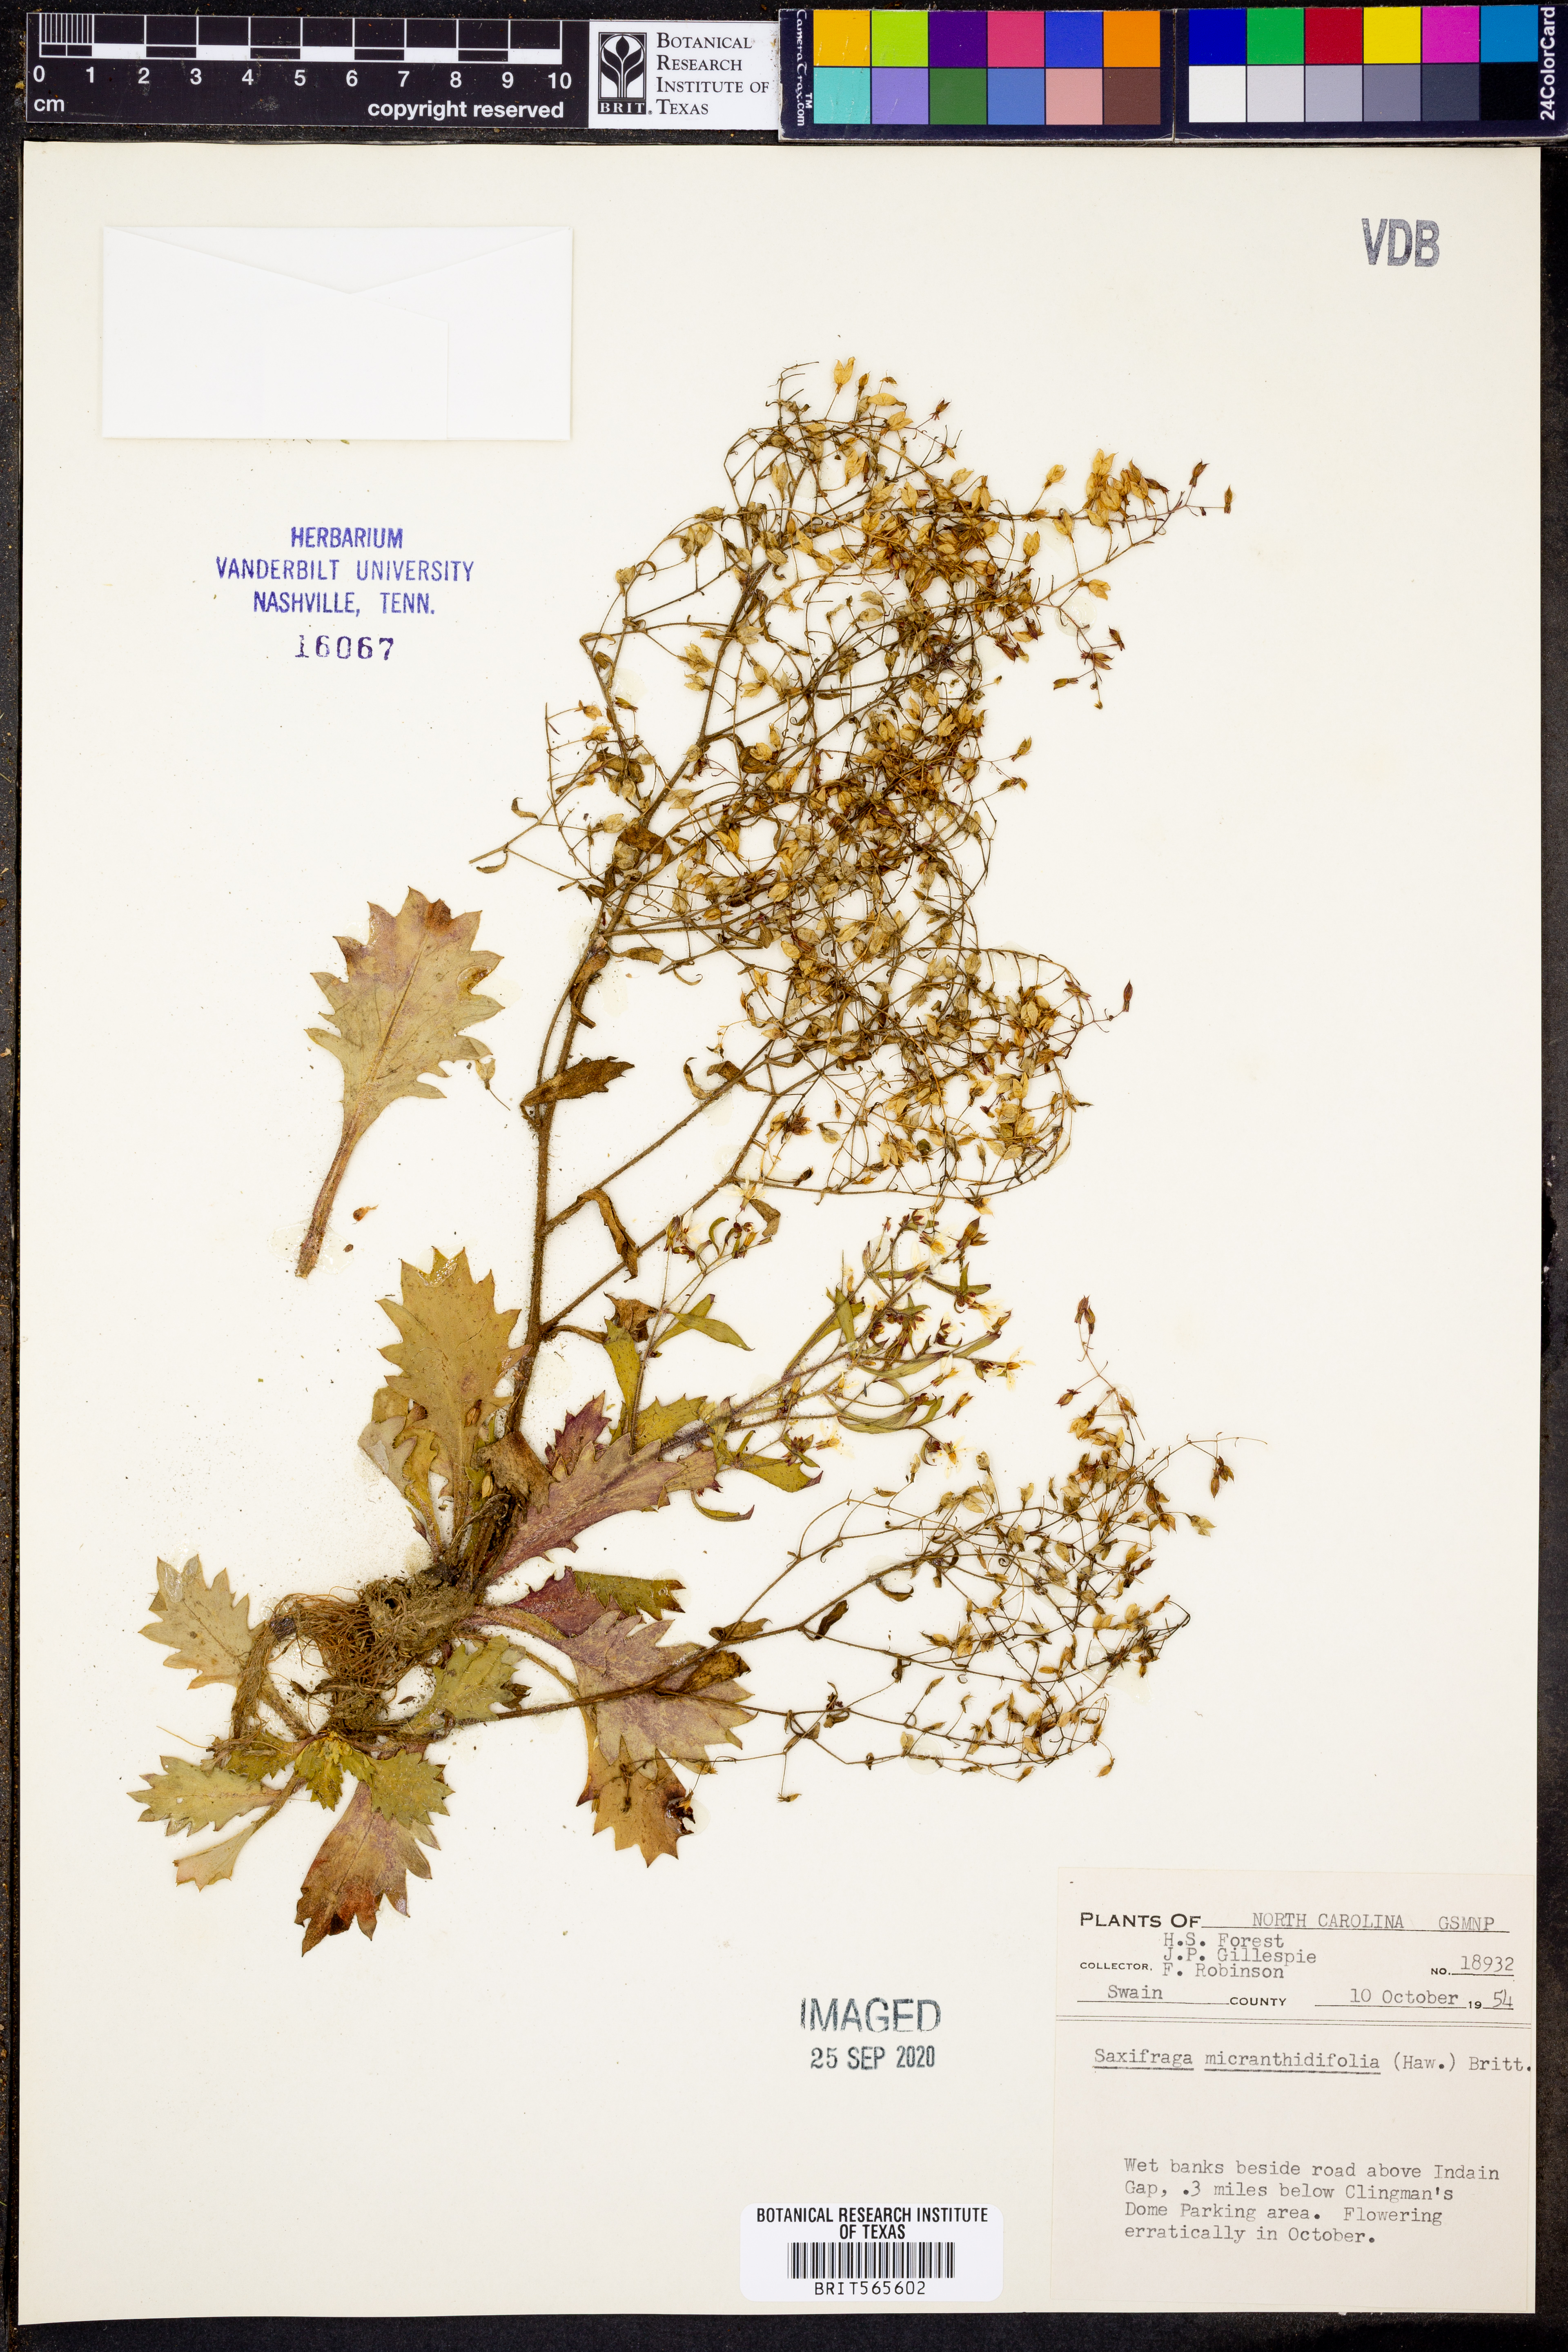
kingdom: Plantae
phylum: Tracheophyta
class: Magnoliopsida
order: Saxifragales
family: Saxifragaceae
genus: Micranthes
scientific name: Micranthes micranthidifolia
